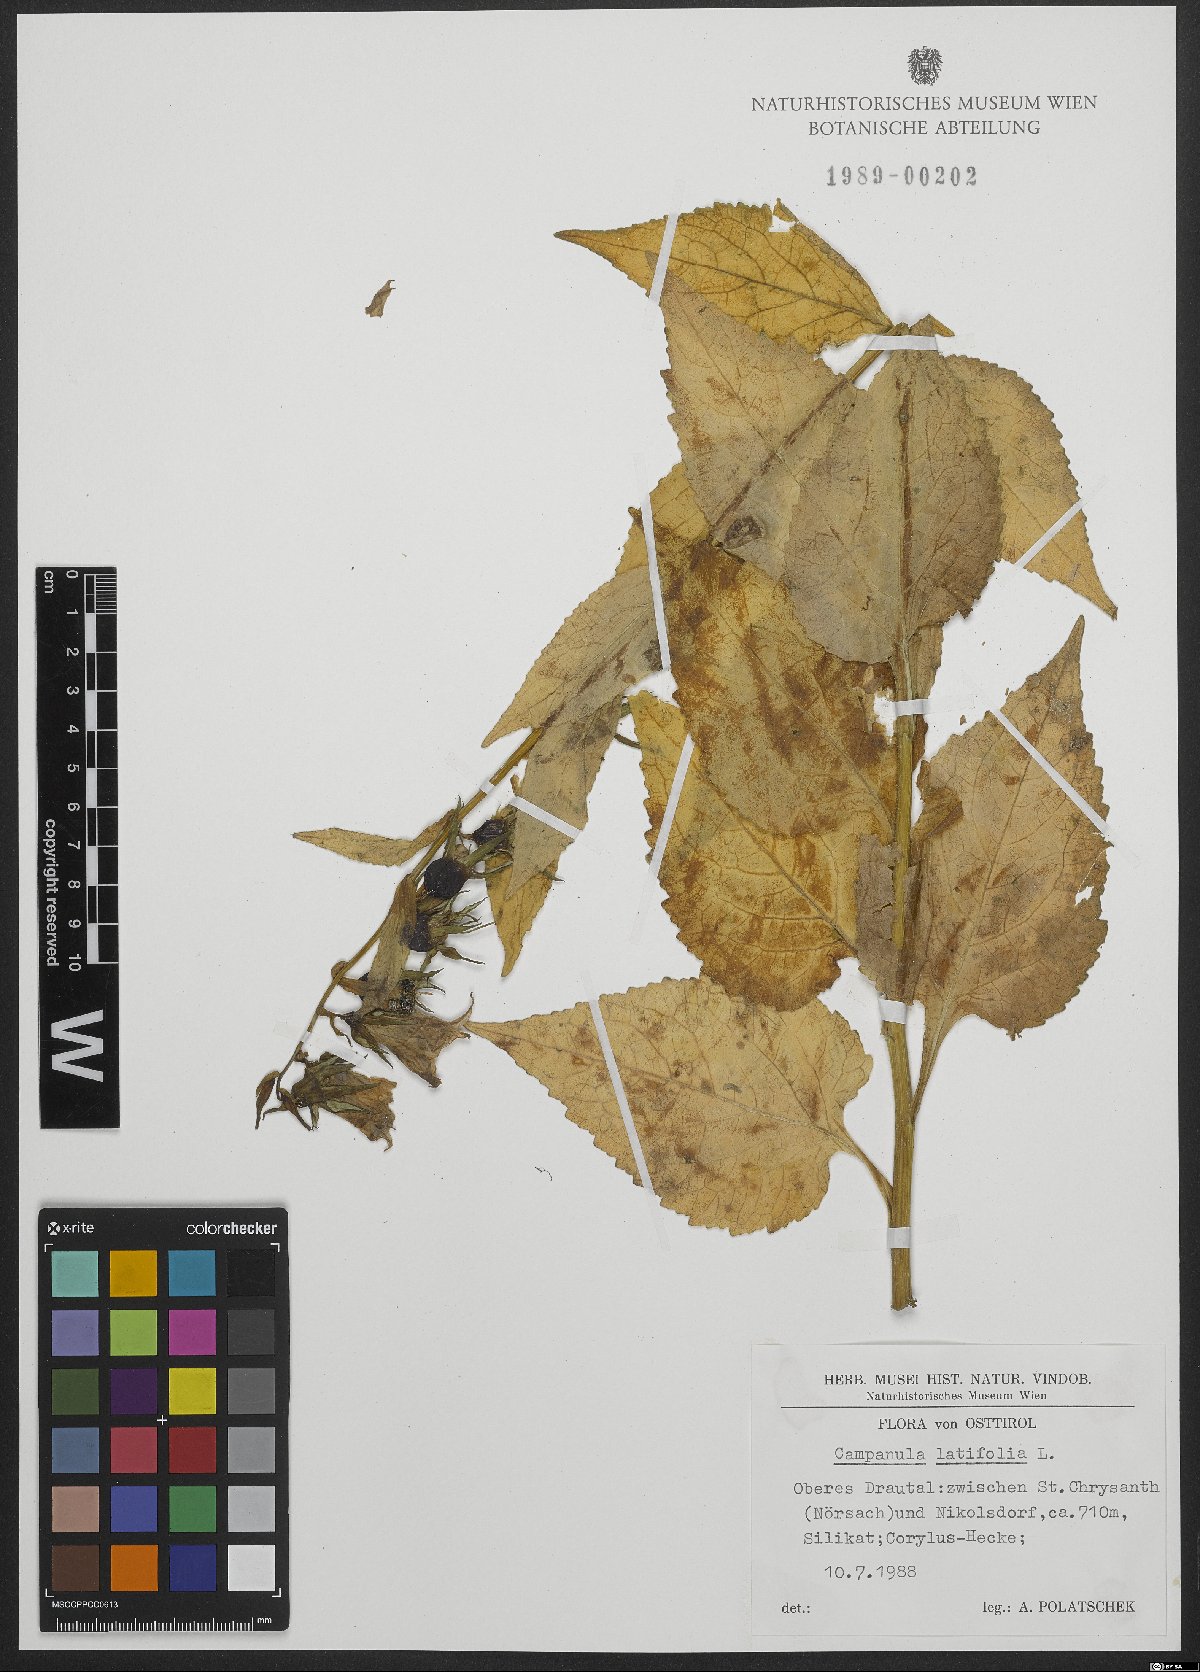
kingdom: Plantae
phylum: Tracheophyta
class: Magnoliopsida
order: Asterales
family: Campanulaceae
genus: Campanula
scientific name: Campanula latifolia
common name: Giant bellflower
